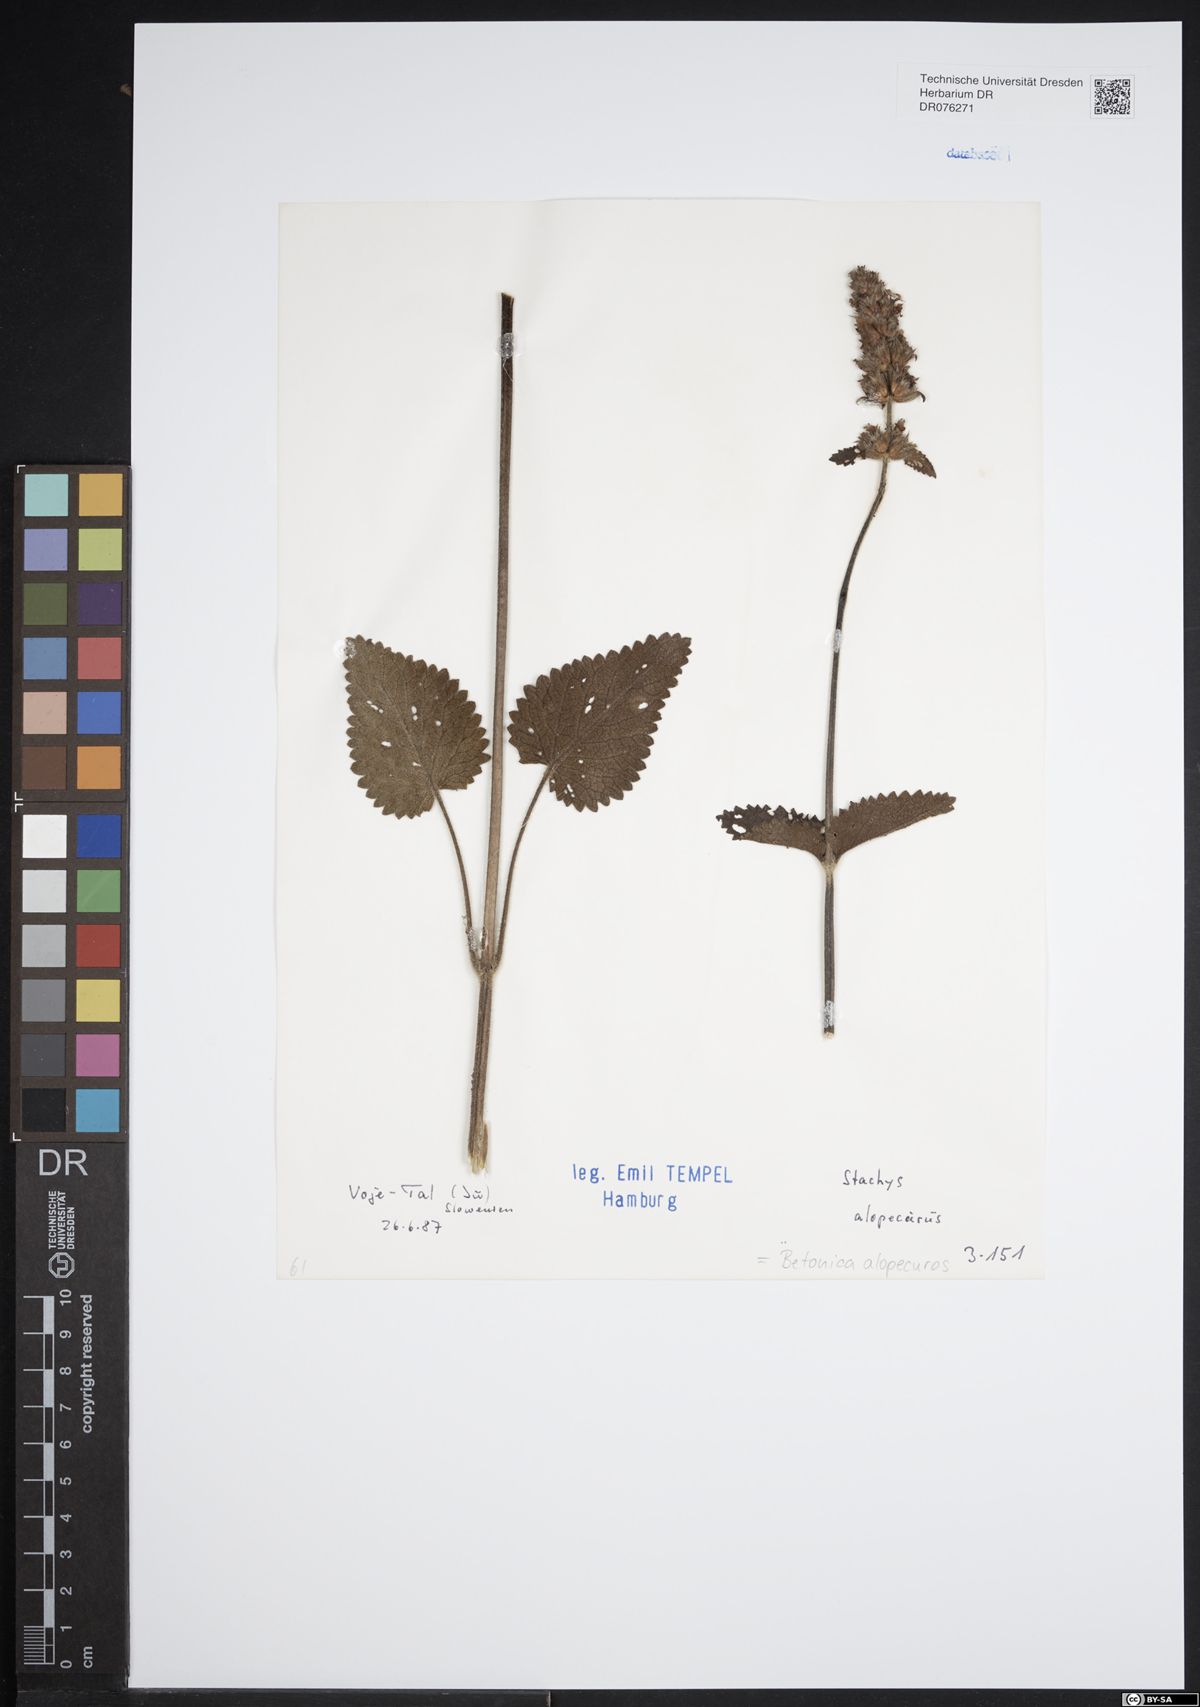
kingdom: Plantae
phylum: Tracheophyta
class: Magnoliopsida
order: Lamiales
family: Lamiaceae
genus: Betonica
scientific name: Betonica alopecuros
